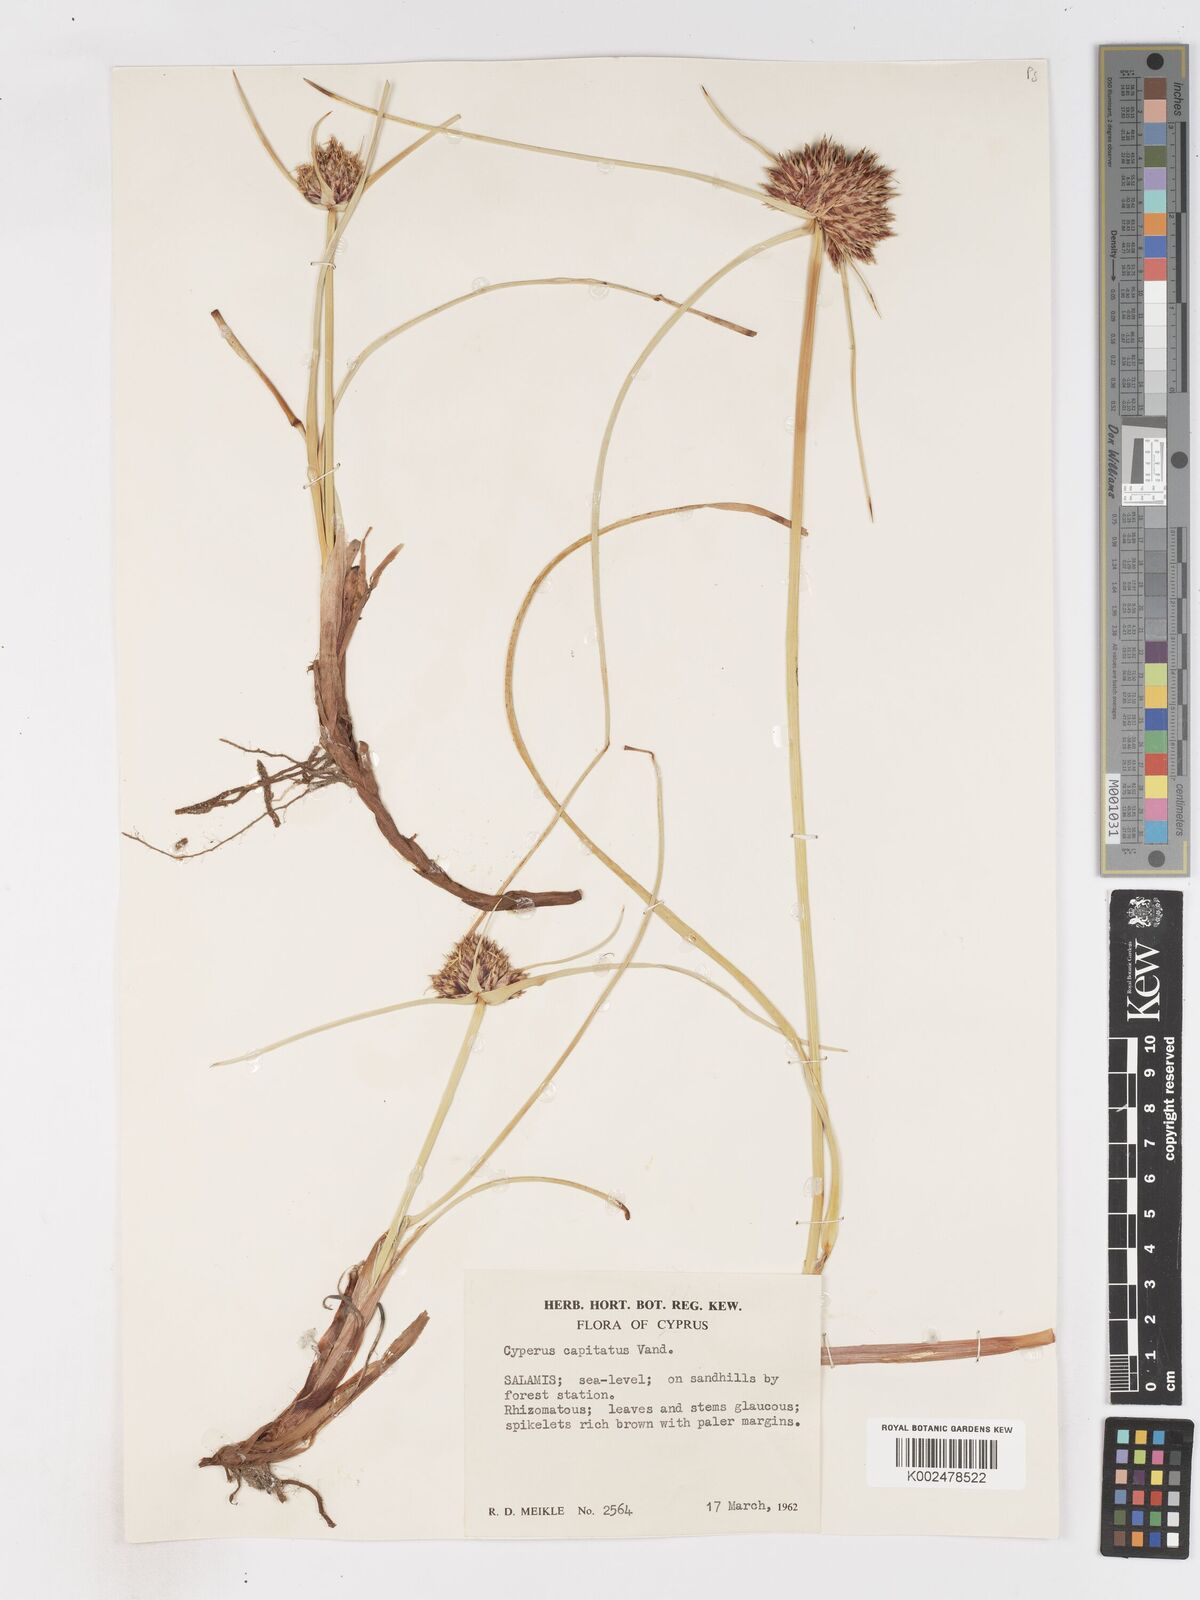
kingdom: Plantae
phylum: Tracheophyta
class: Liliopsida
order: Poales
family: Cyperaceae
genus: Cyperus
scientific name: Cyperus capitatus
